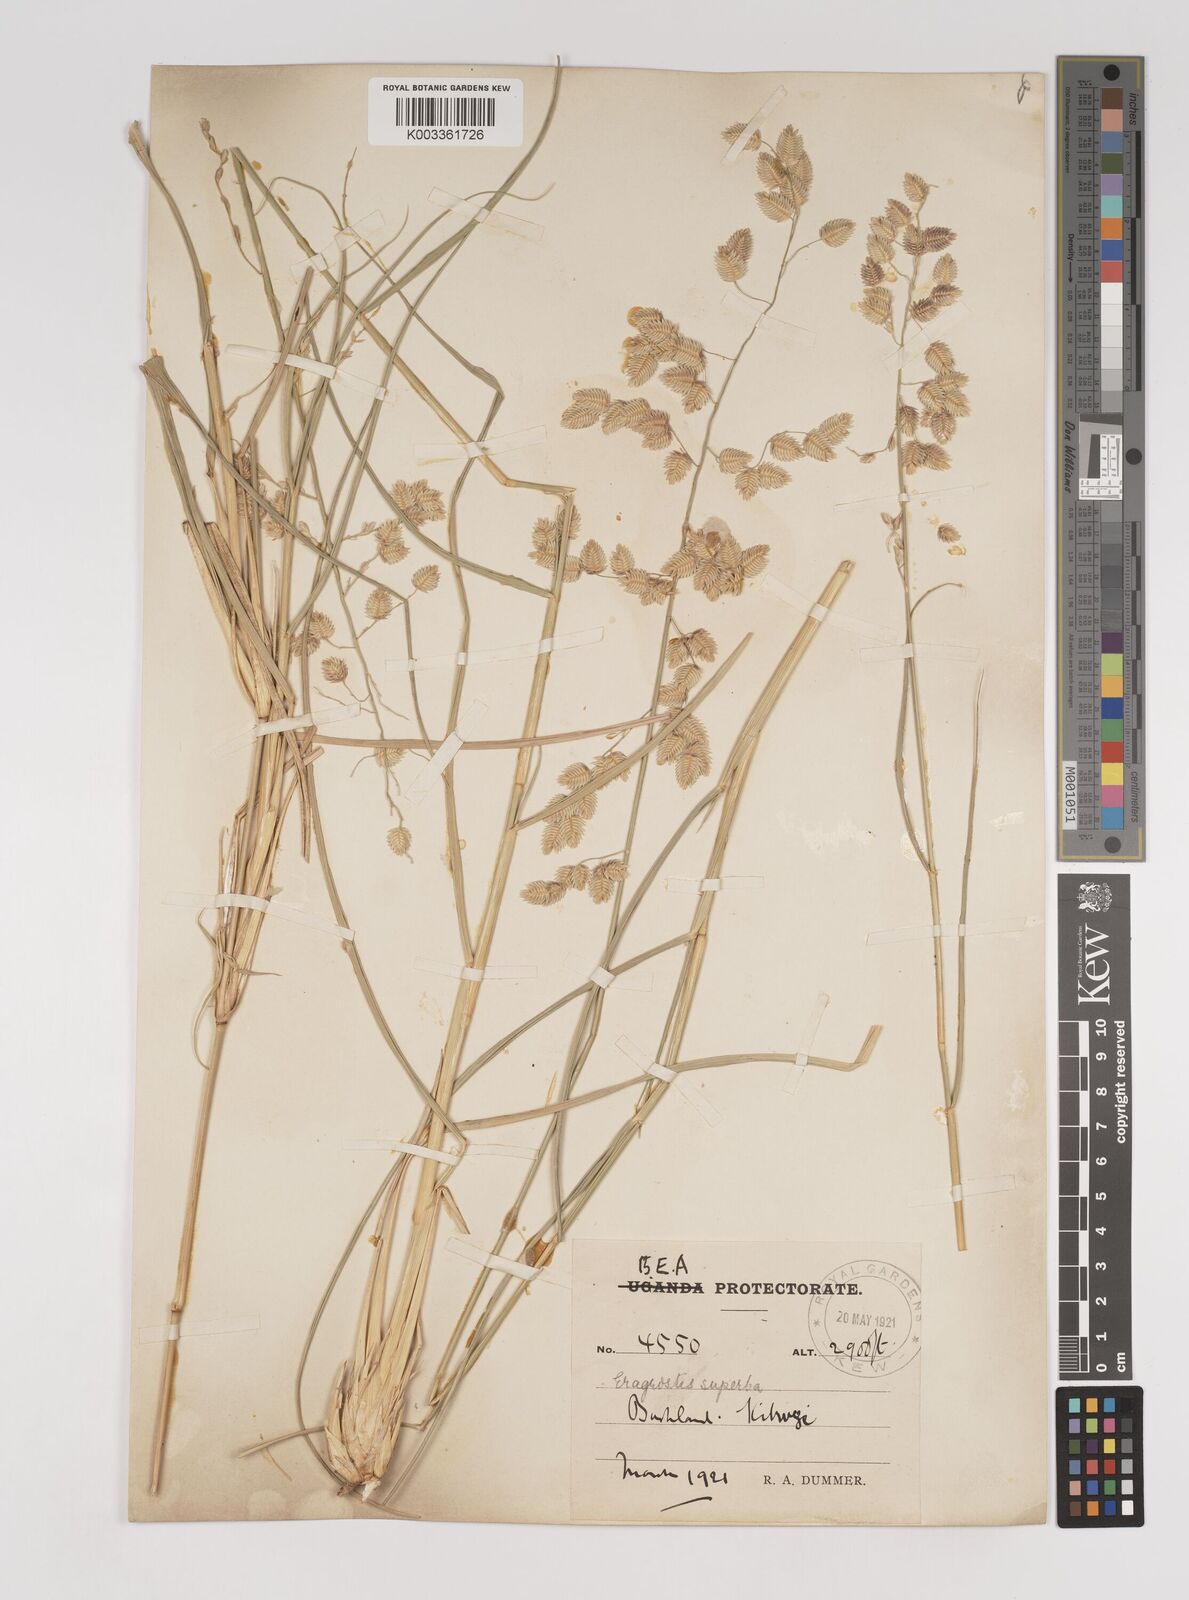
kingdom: Plantae
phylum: Tracheophyta
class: Liliopsida
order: Poales
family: Poaceae
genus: Eragrostis
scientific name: Eragrostis superba
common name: Wilman lovegrass
